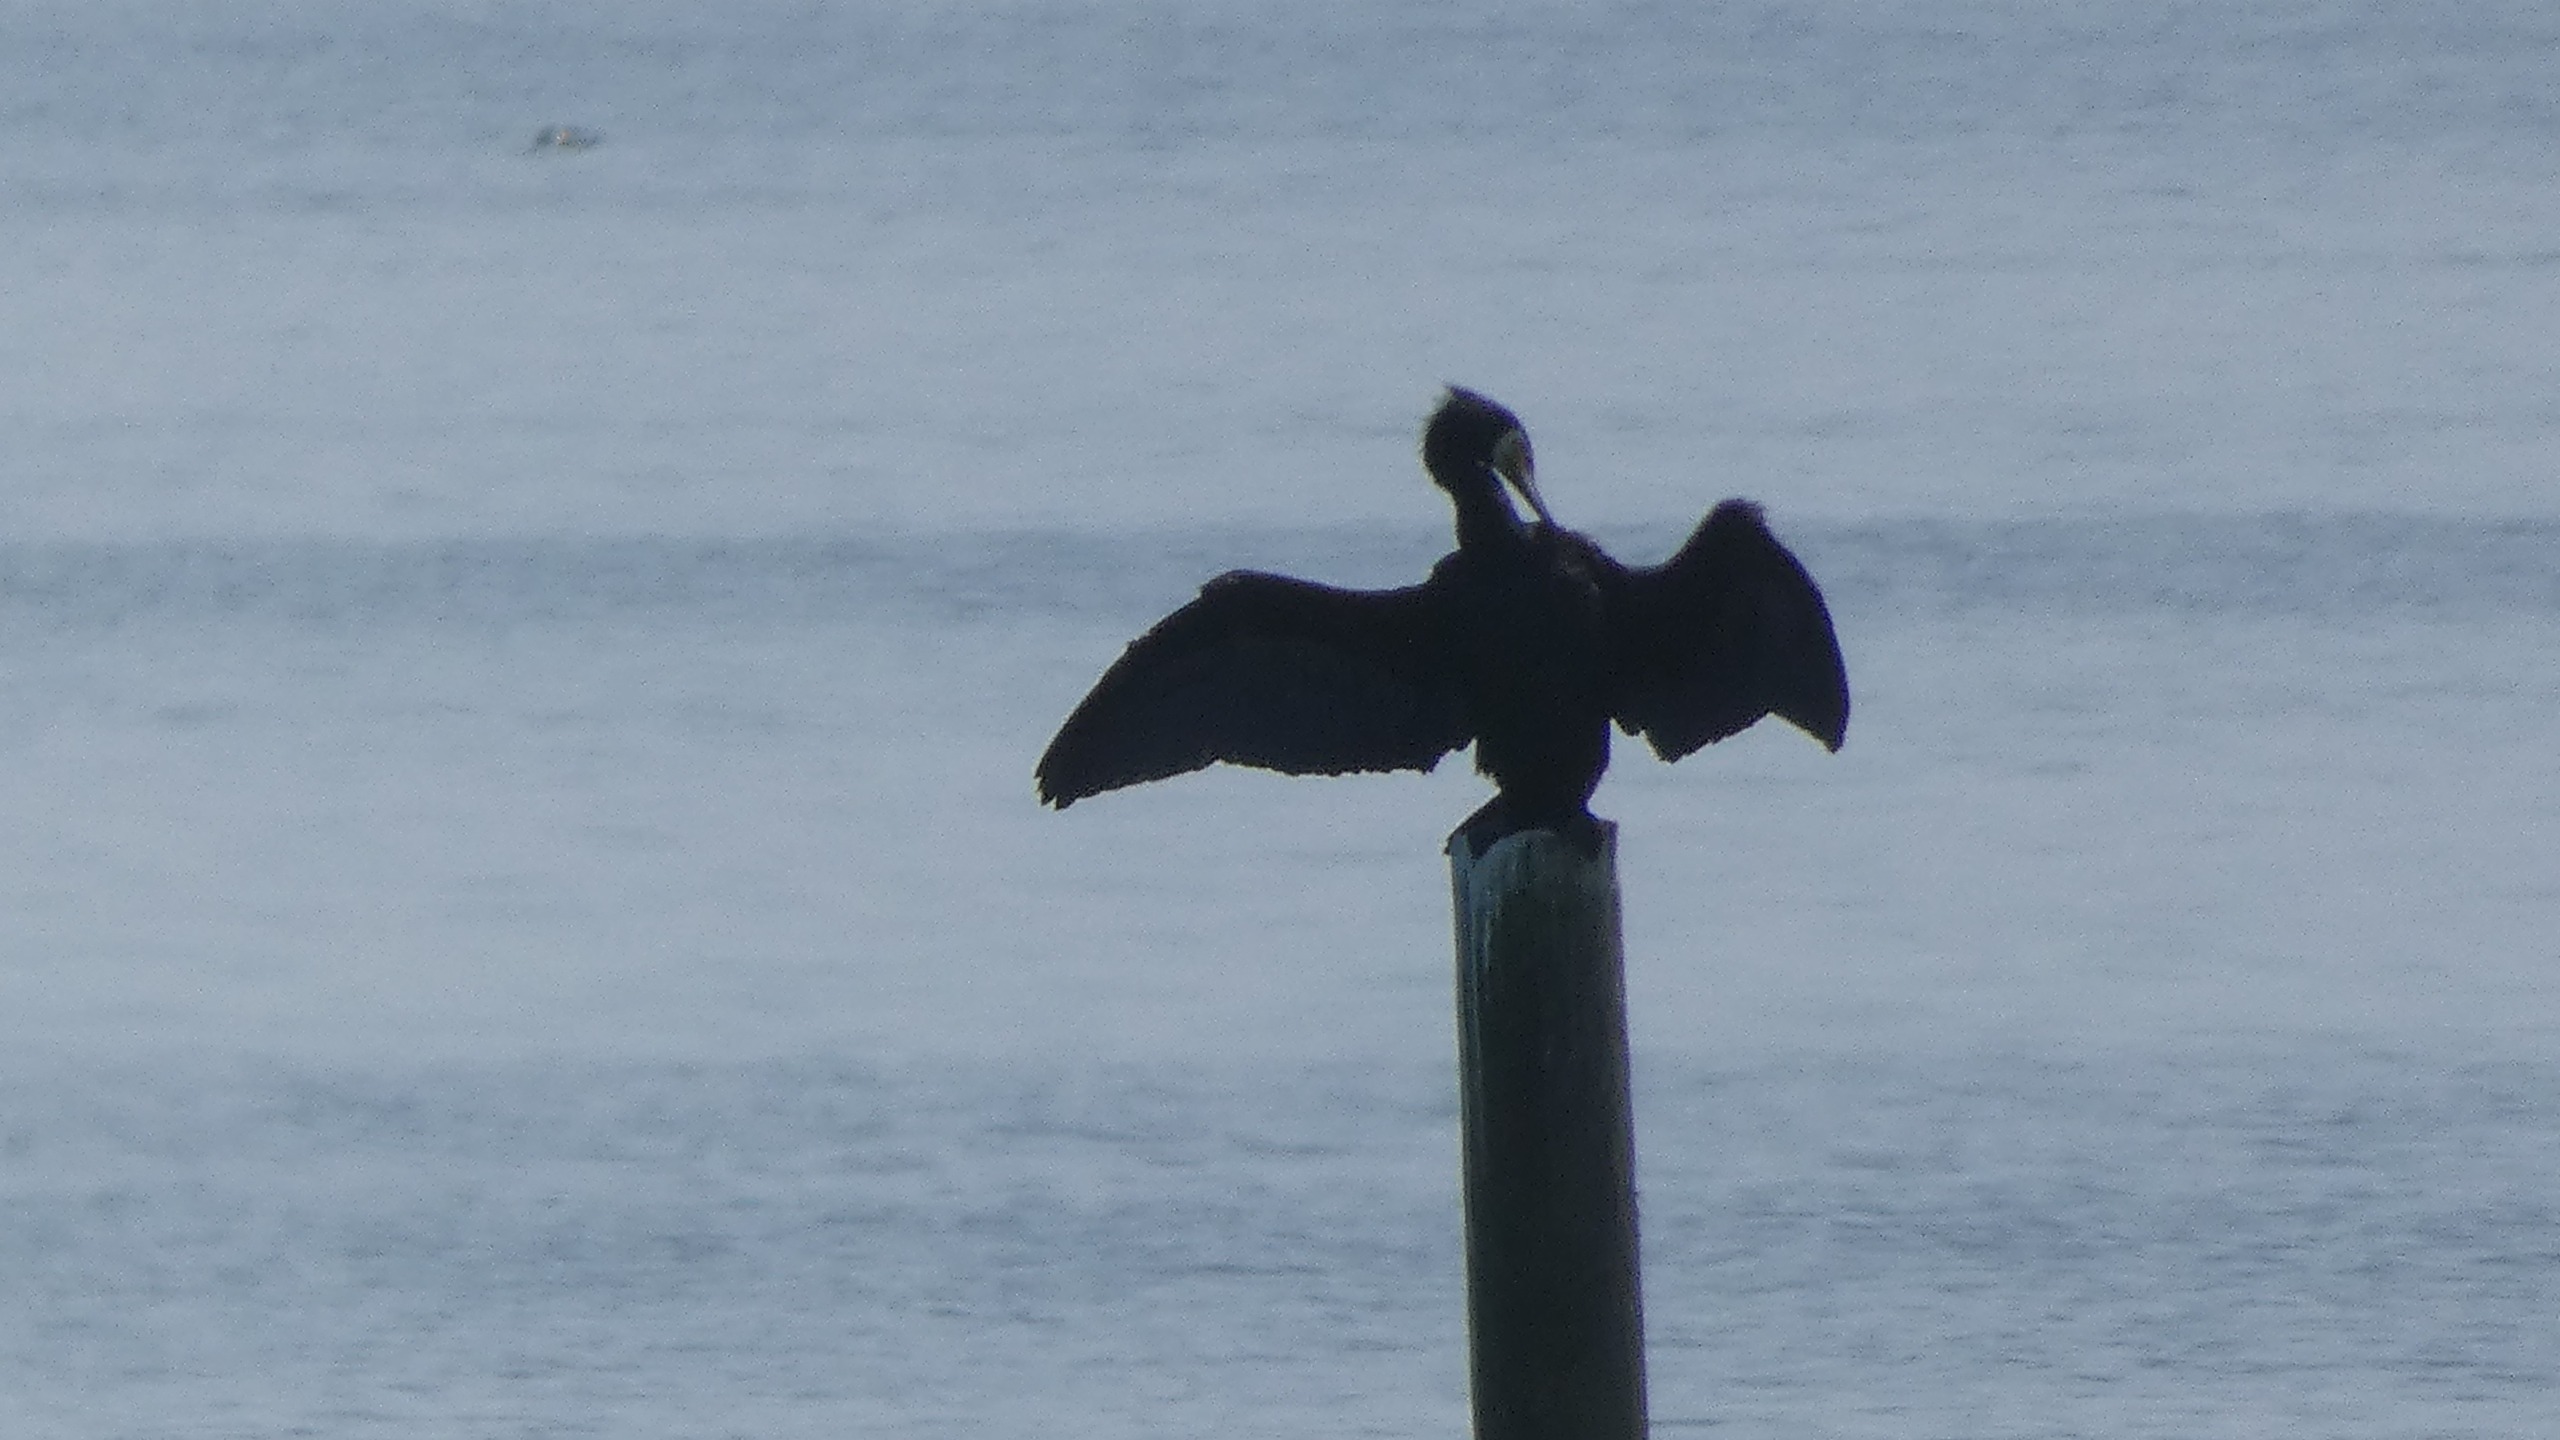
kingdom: Animalia
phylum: Chordata
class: Aves
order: Suliformes
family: Phalacrocoracidae
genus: Phalacrocorax
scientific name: Phalacrocorax carbo
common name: Skarv
